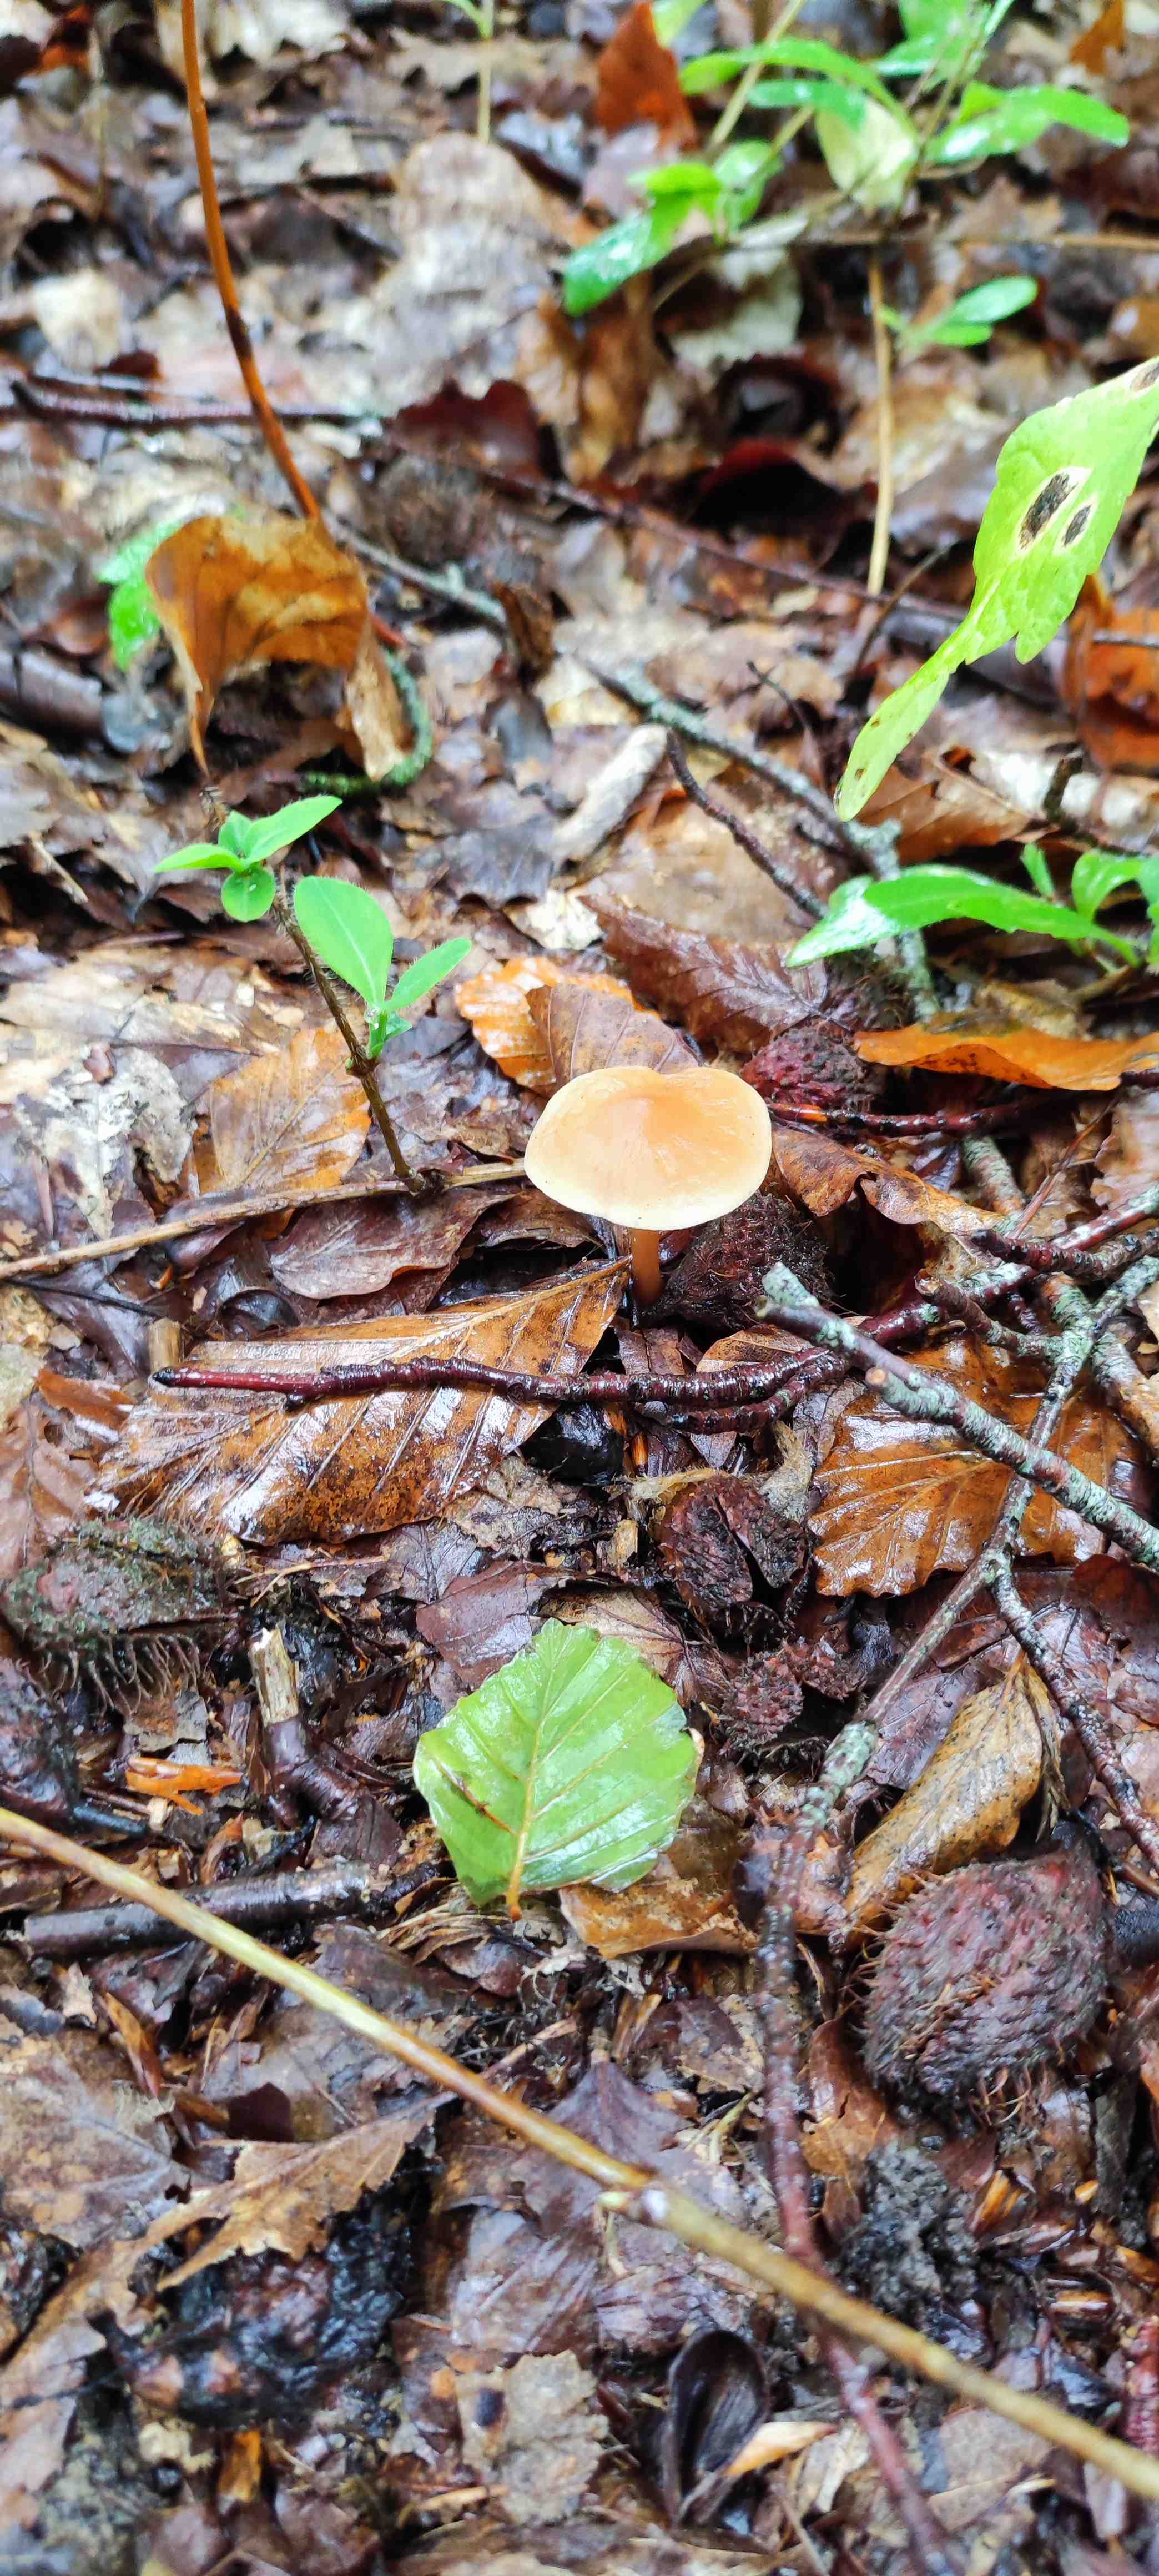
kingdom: Fungi
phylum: Basidiomycota
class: Agaricomycetes
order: Agaricales
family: Omphalotaceae
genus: Gymnopus
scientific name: Gymnopus dryophilus
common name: løv-fladhat
